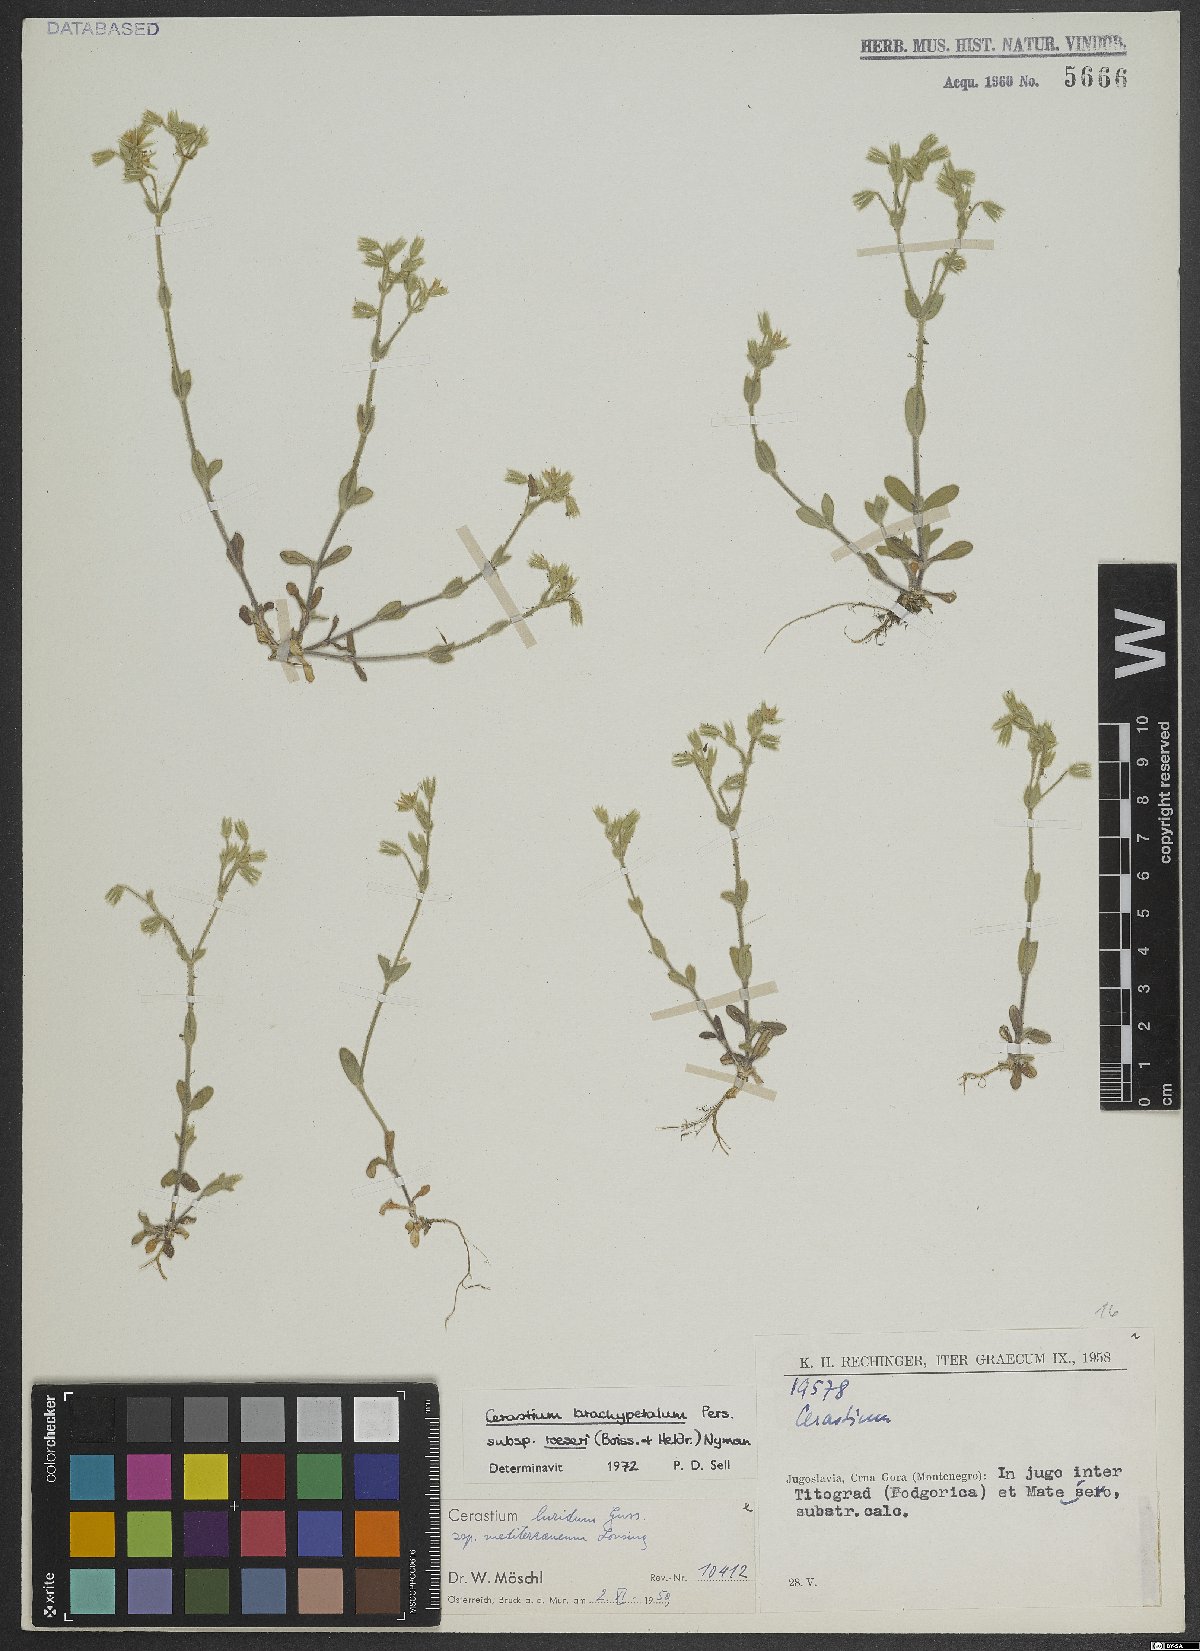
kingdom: Plantae
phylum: Tracheophyta
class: Magnoliopsida
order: Caryophyllales
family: Caryophyllaceae
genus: Cerastium
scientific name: Cerastium brachypetalum
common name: Grey mouse-ear
